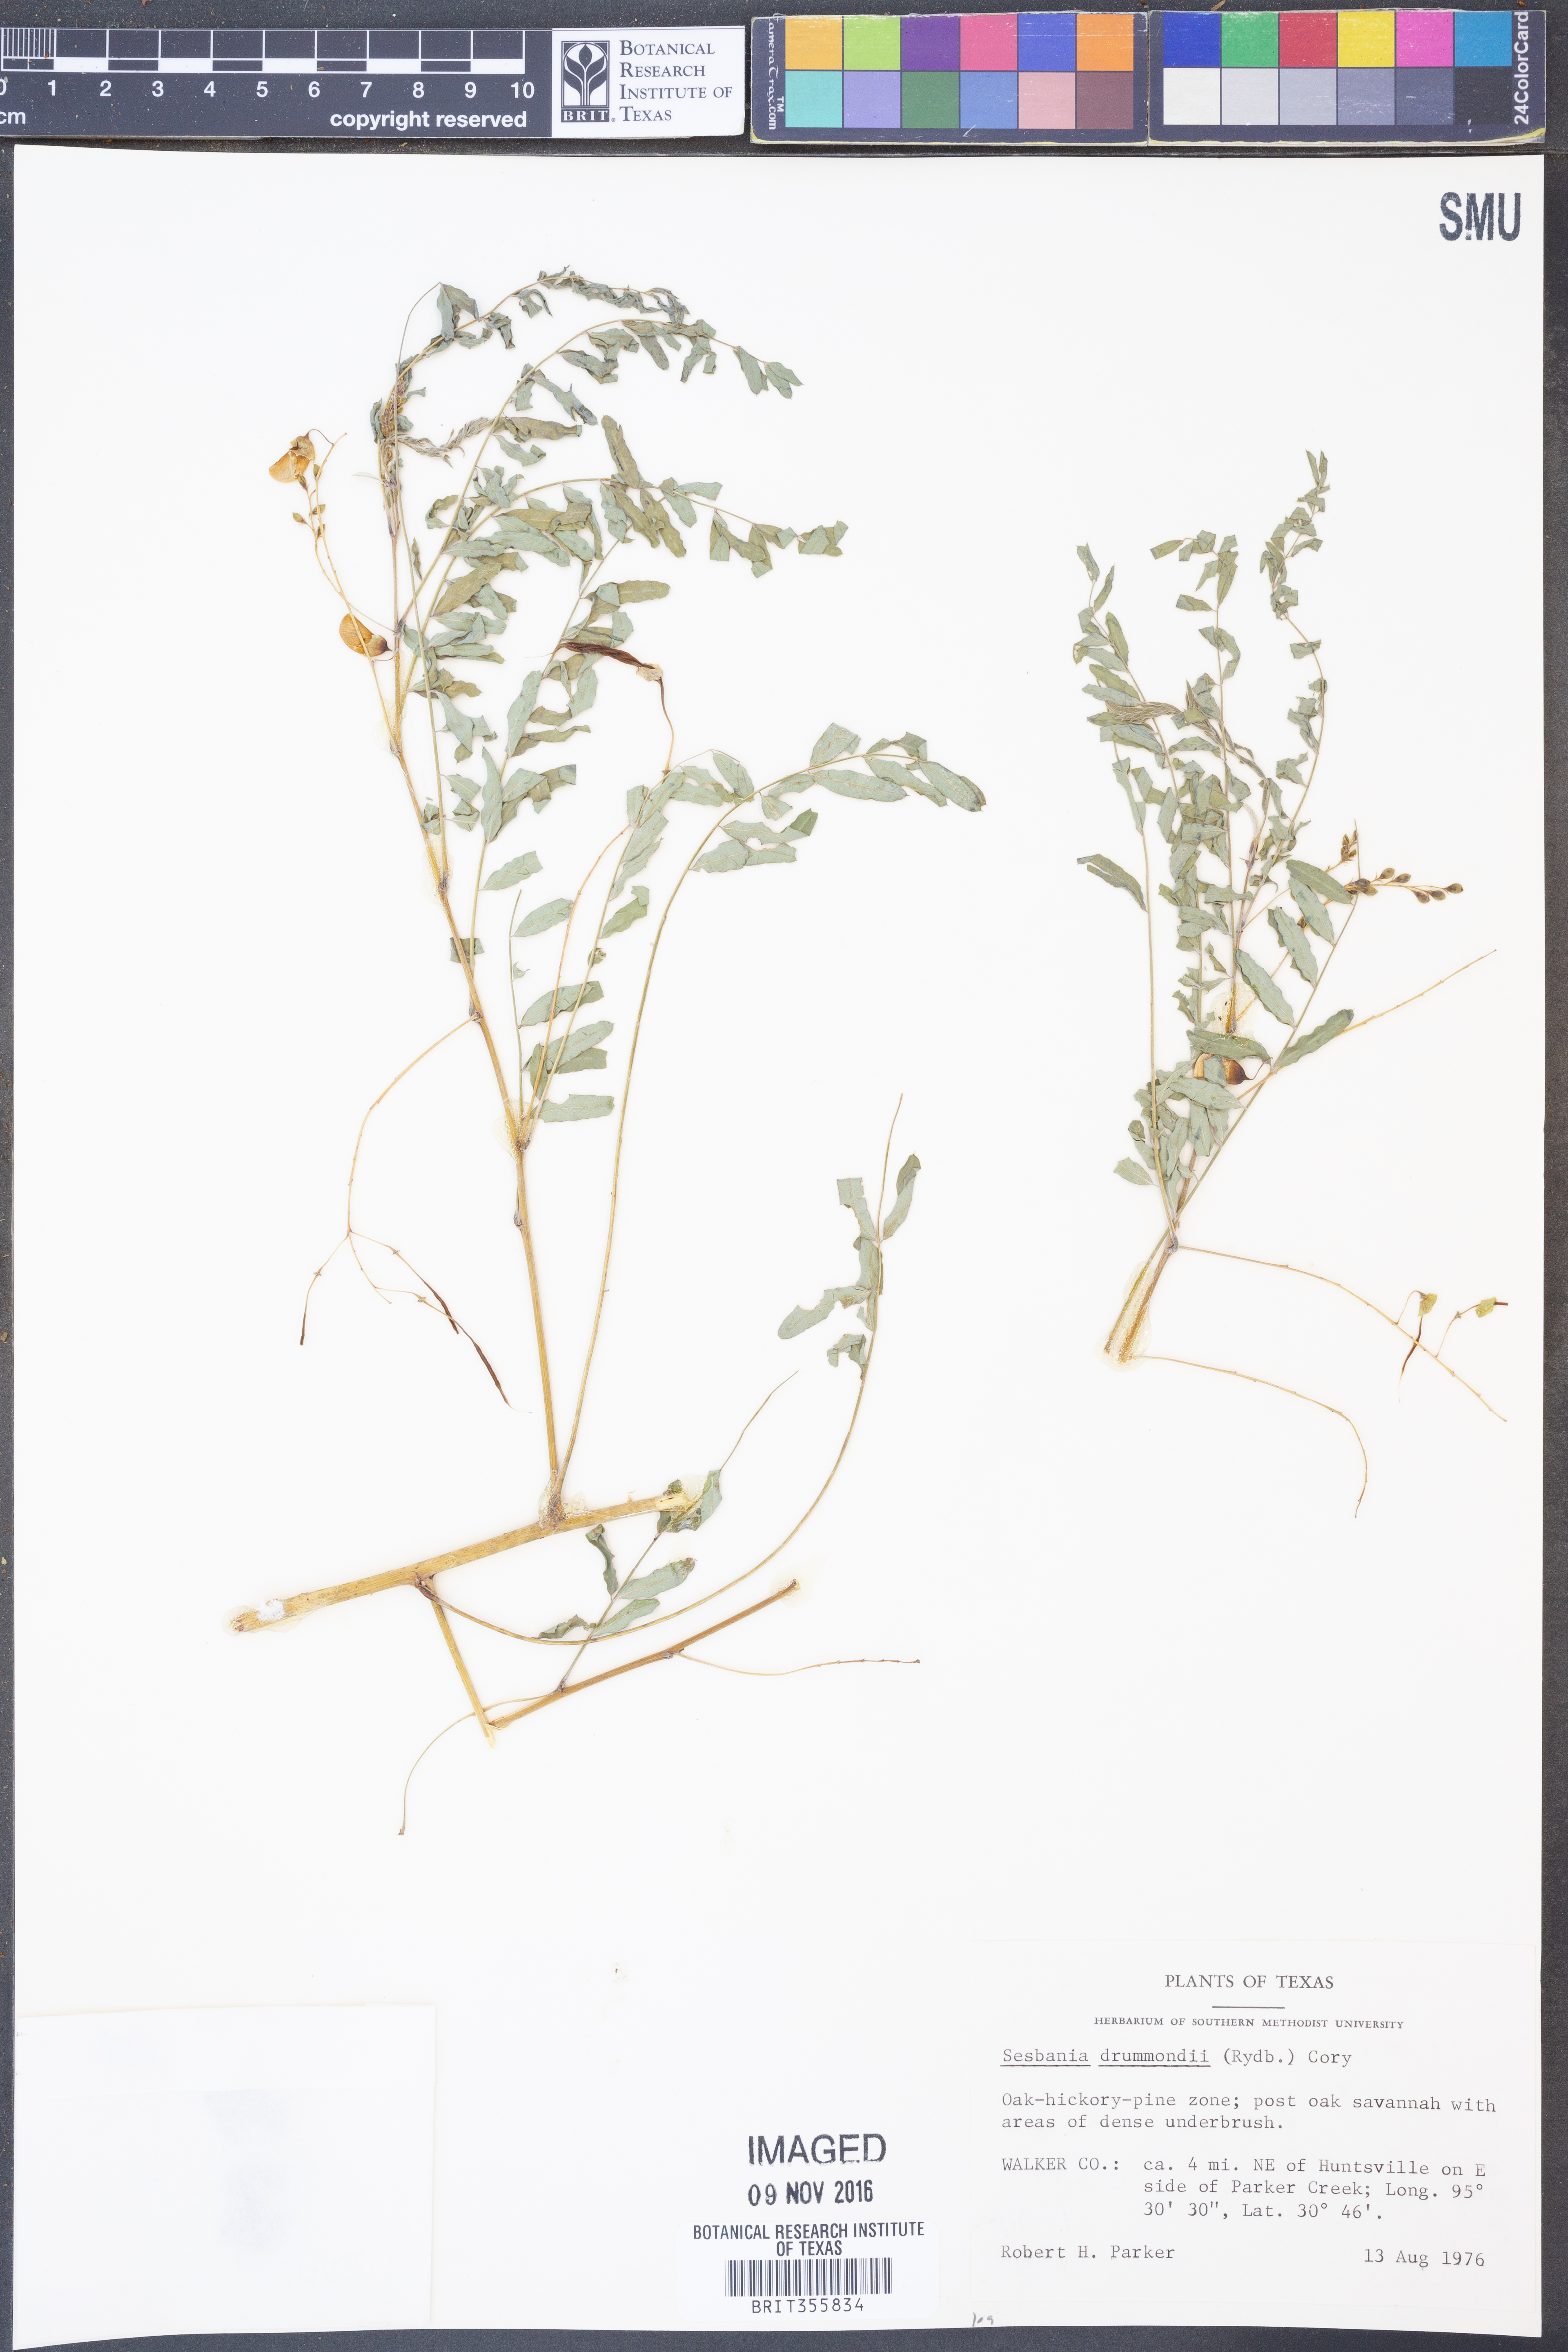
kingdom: Plantae
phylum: Tracheophyta
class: Magnoliopsida
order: Fabales
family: Fabaceae
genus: Sesbania
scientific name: Sesbania drummondii
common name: Poison-bean
